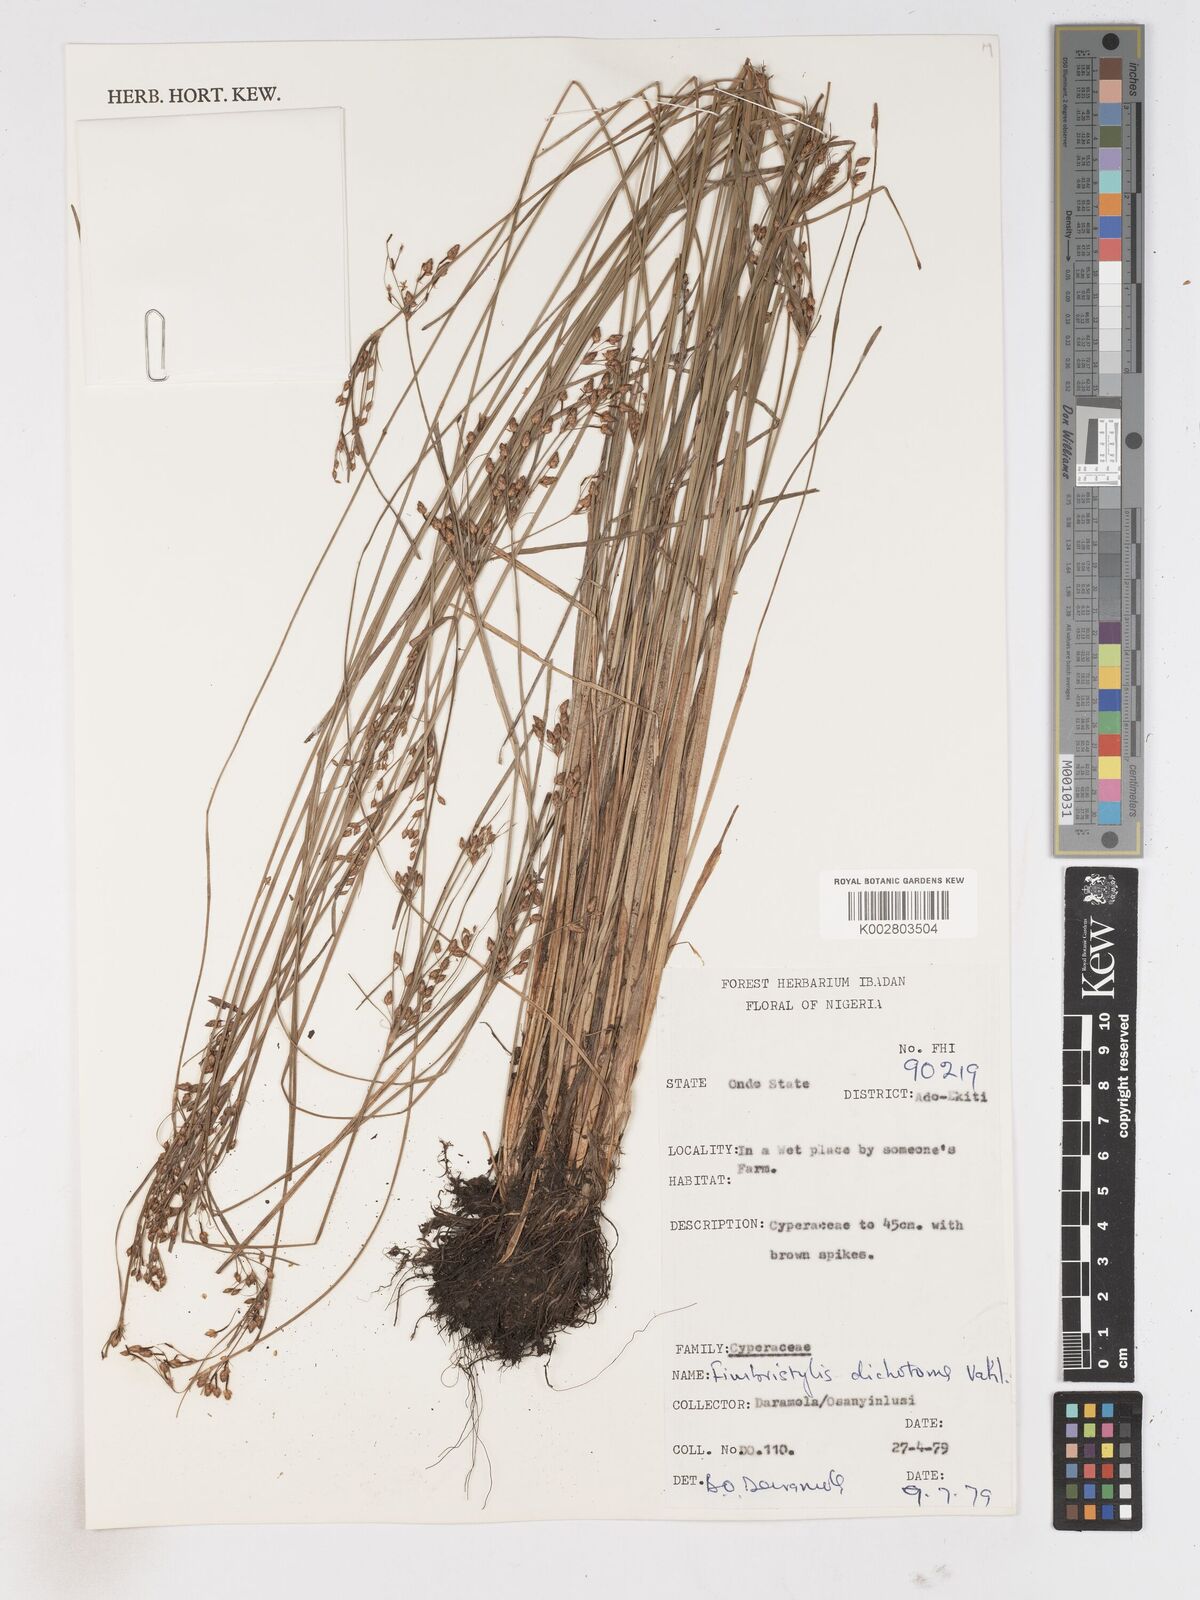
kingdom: Plantae
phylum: Tracheophyta
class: Liliopsida
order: Poales
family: Cyperaceae
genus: Fimbristylis
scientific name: Fimbristylis dichotoma
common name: Forked fimbry
